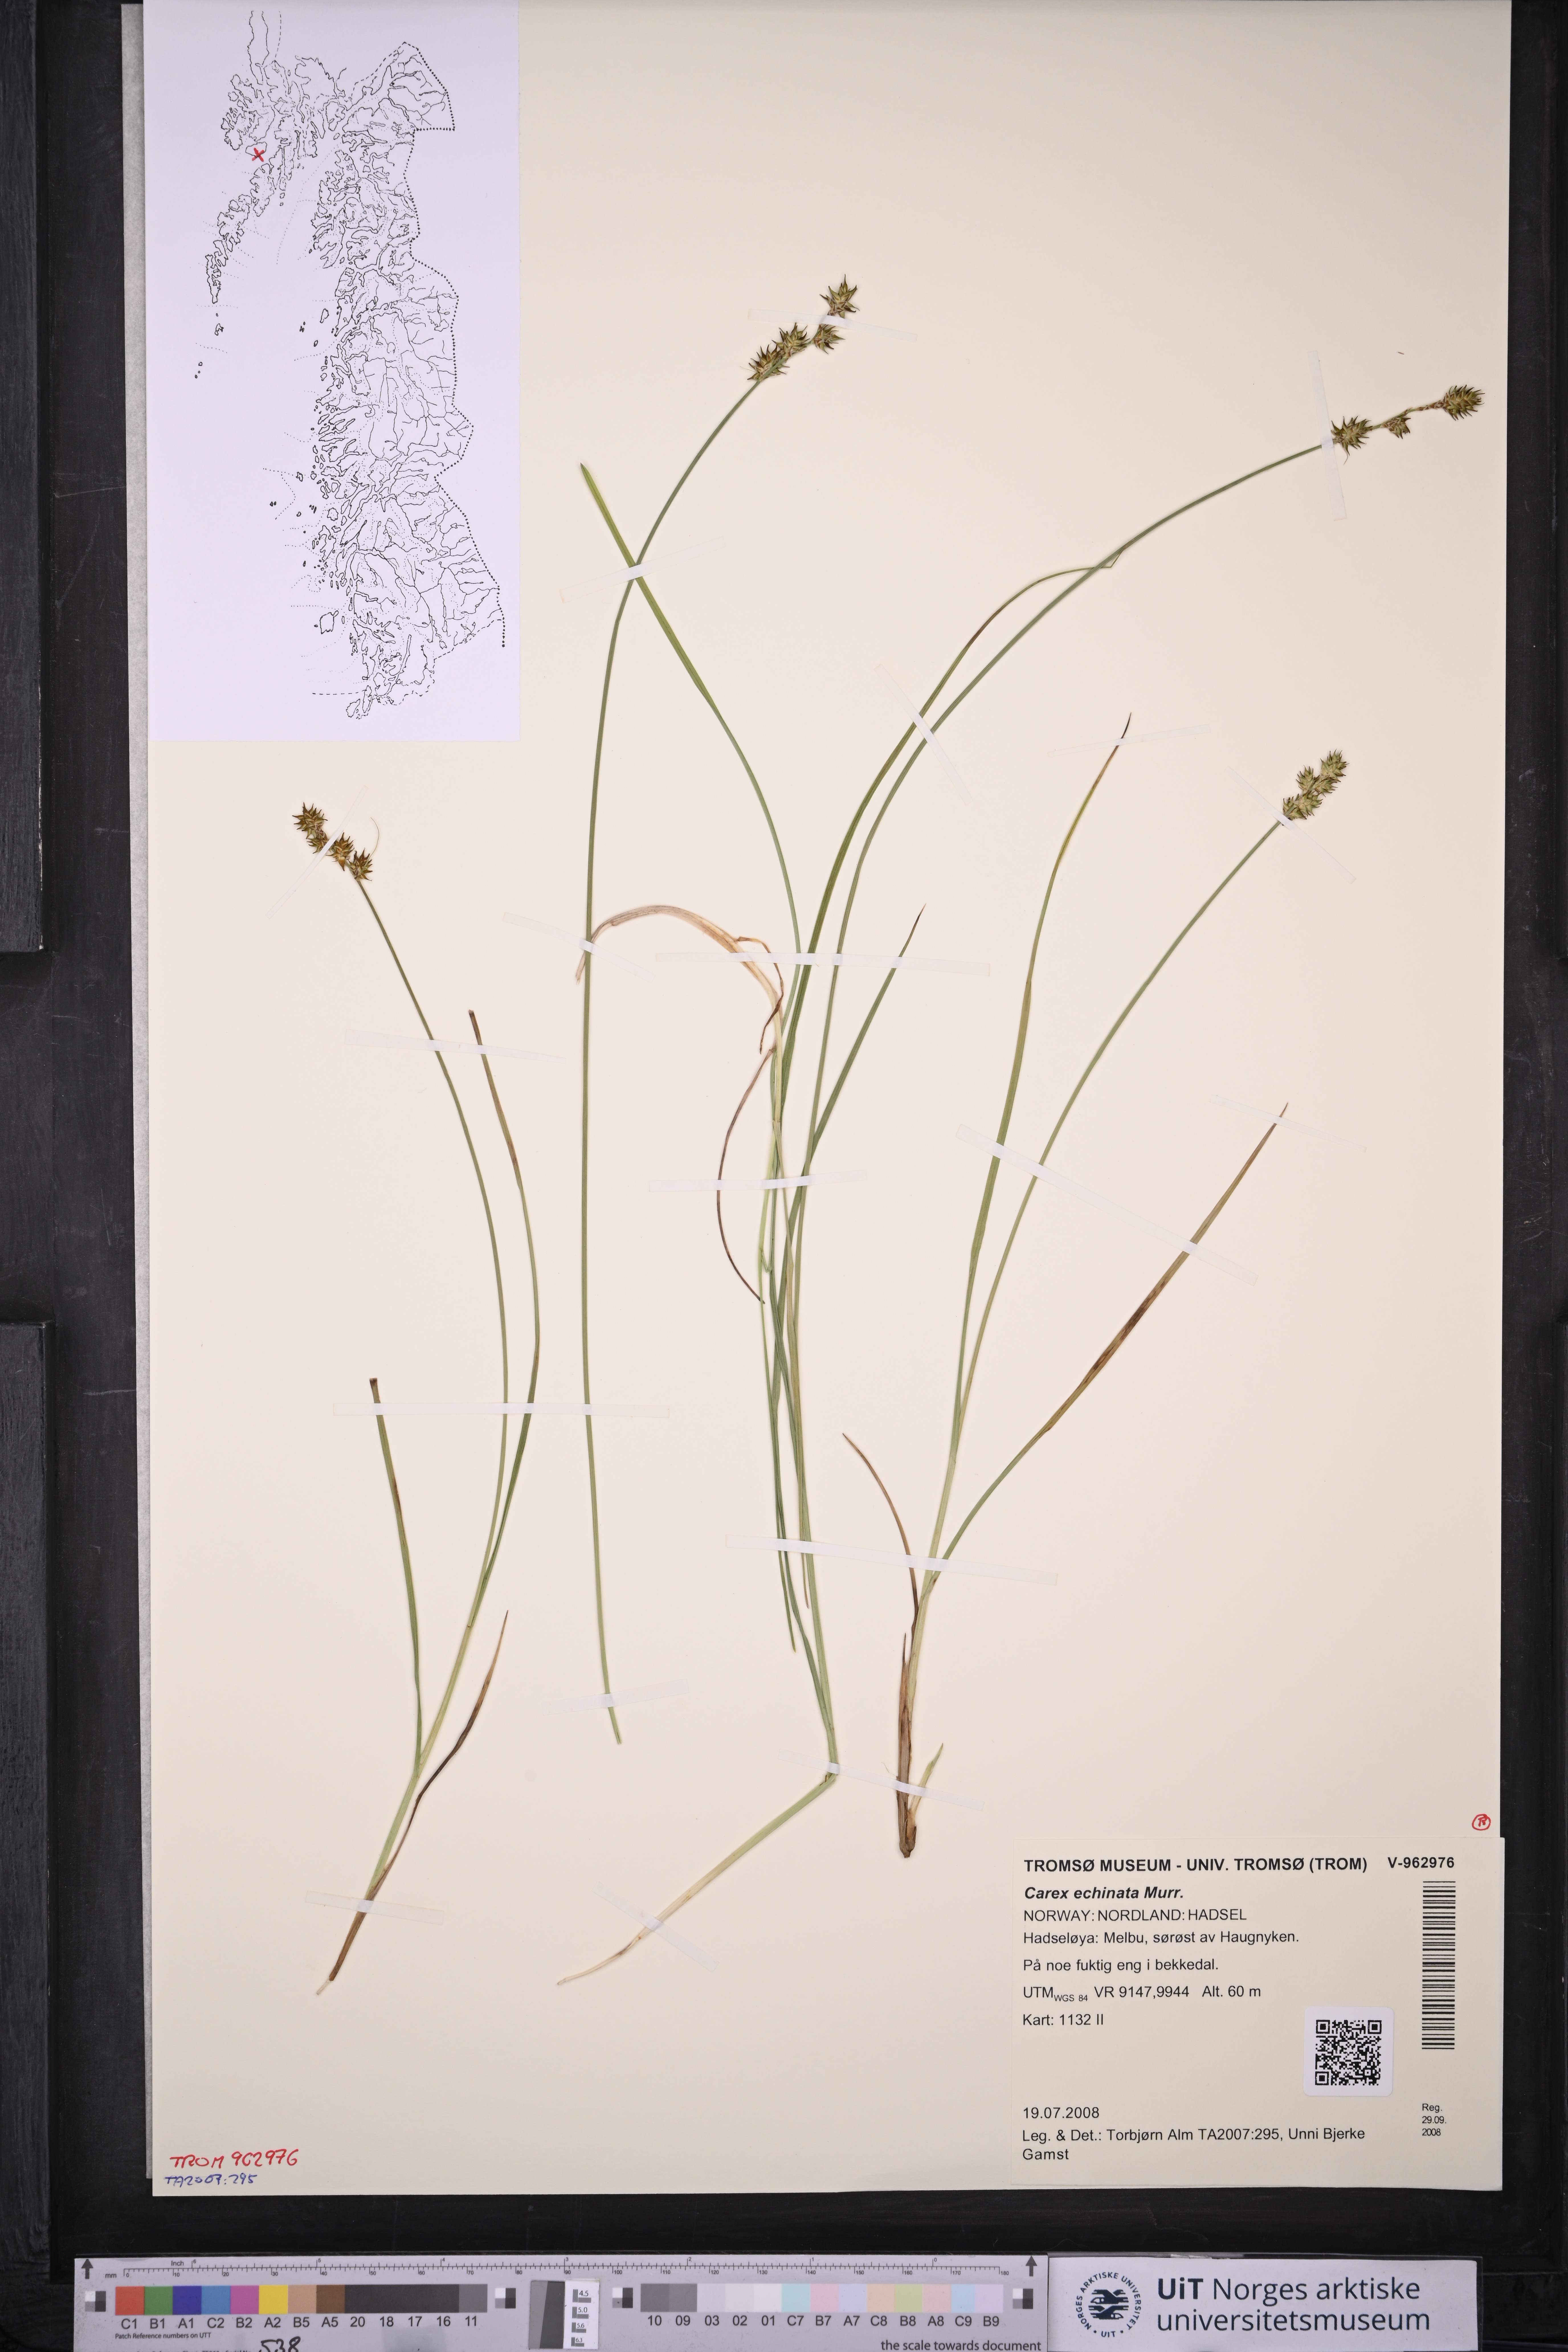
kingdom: Plantae
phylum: Tracheophyta
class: Liliopsida
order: Poales
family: Cyperaceae
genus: Carex
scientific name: Carex echinata
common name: Star sedge
